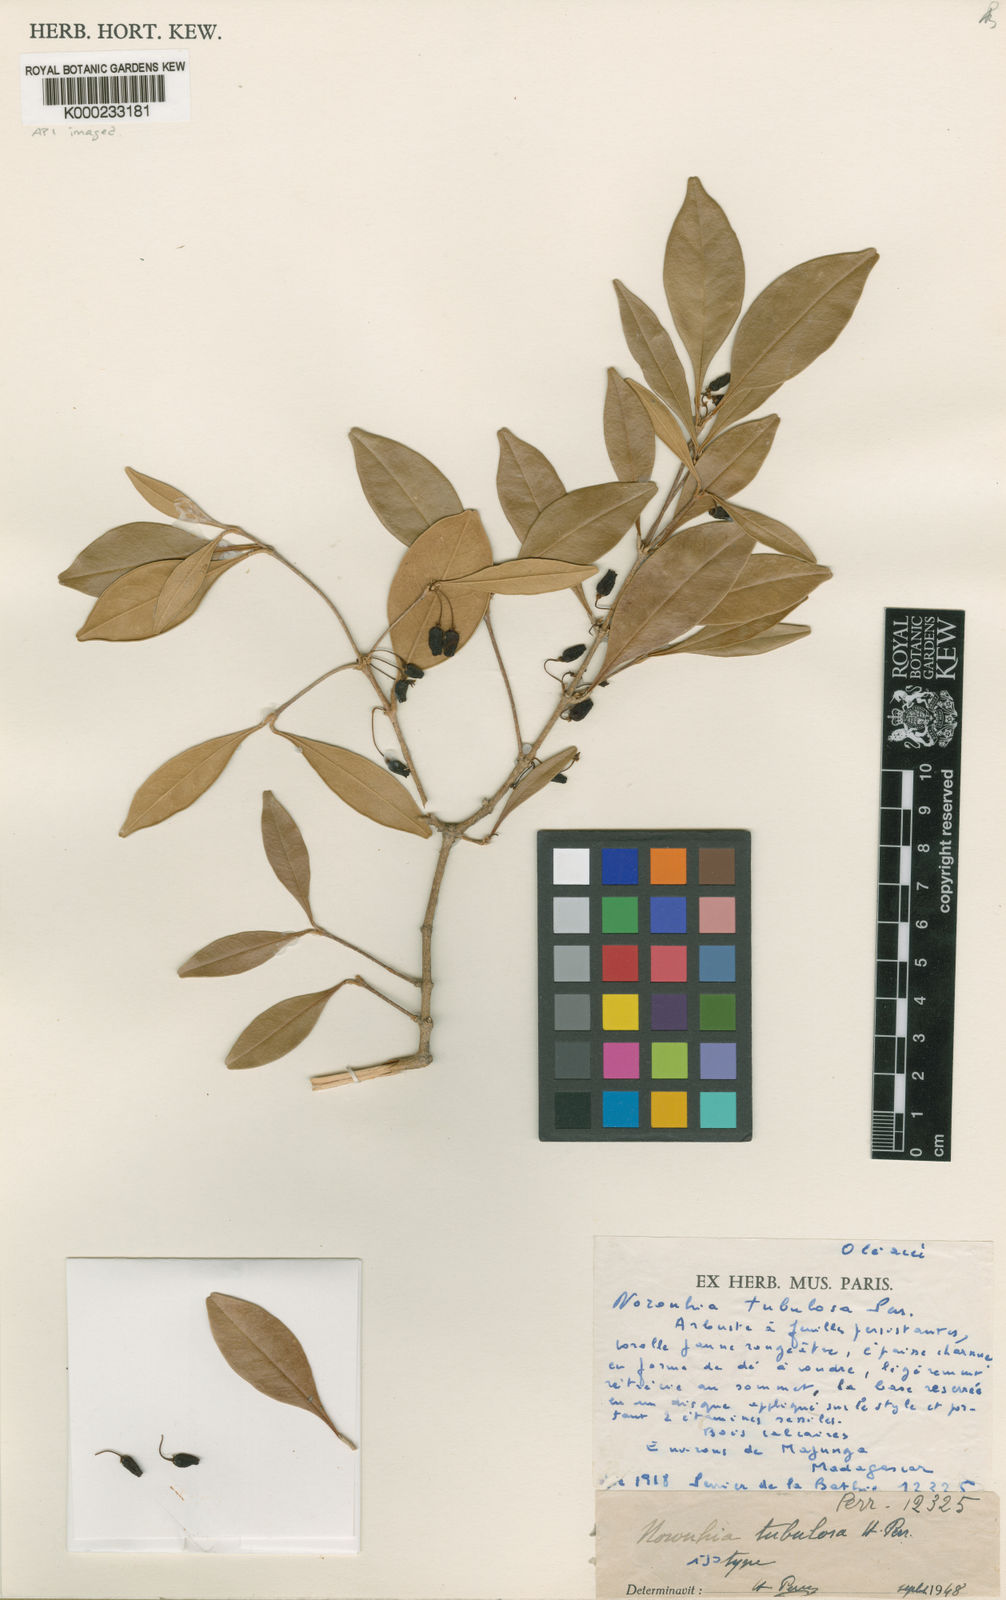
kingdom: Plantae
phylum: Tracheophyta
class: Magnoliopsida
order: Lamiales
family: Oleaceae
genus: Noronhia
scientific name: Noronhia tubulosa
